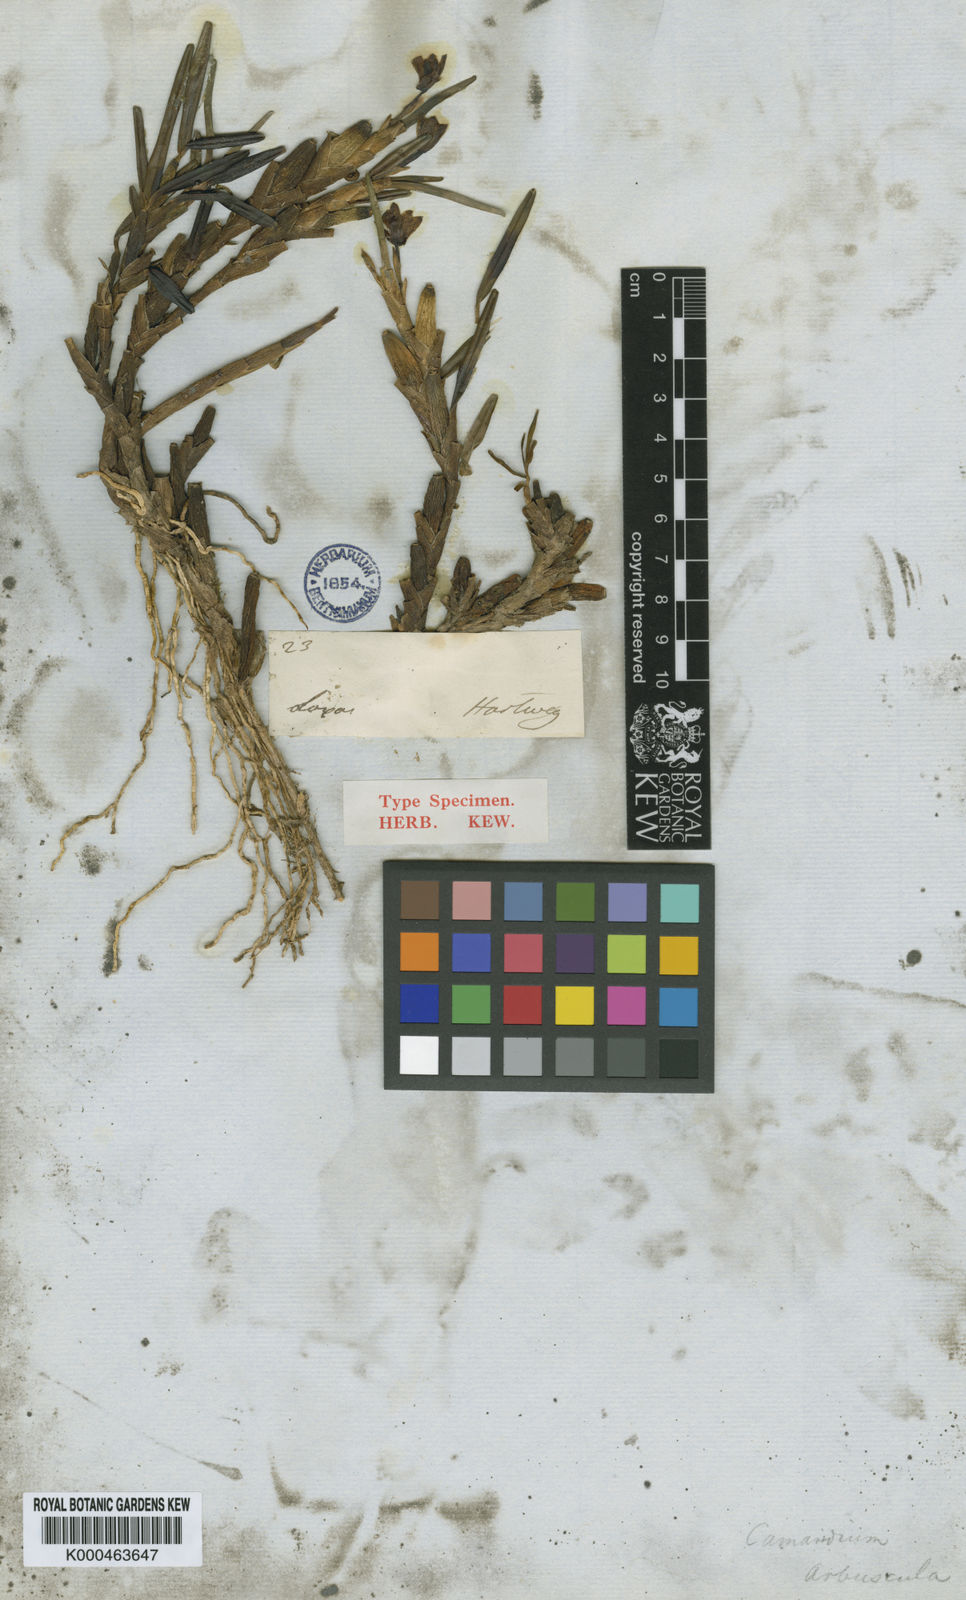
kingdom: Plantae
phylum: Tracheophyta
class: Liliopsida
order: Asparagales
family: Orchidaceae
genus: Maxillaria
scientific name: Maxillaria arbuscula
